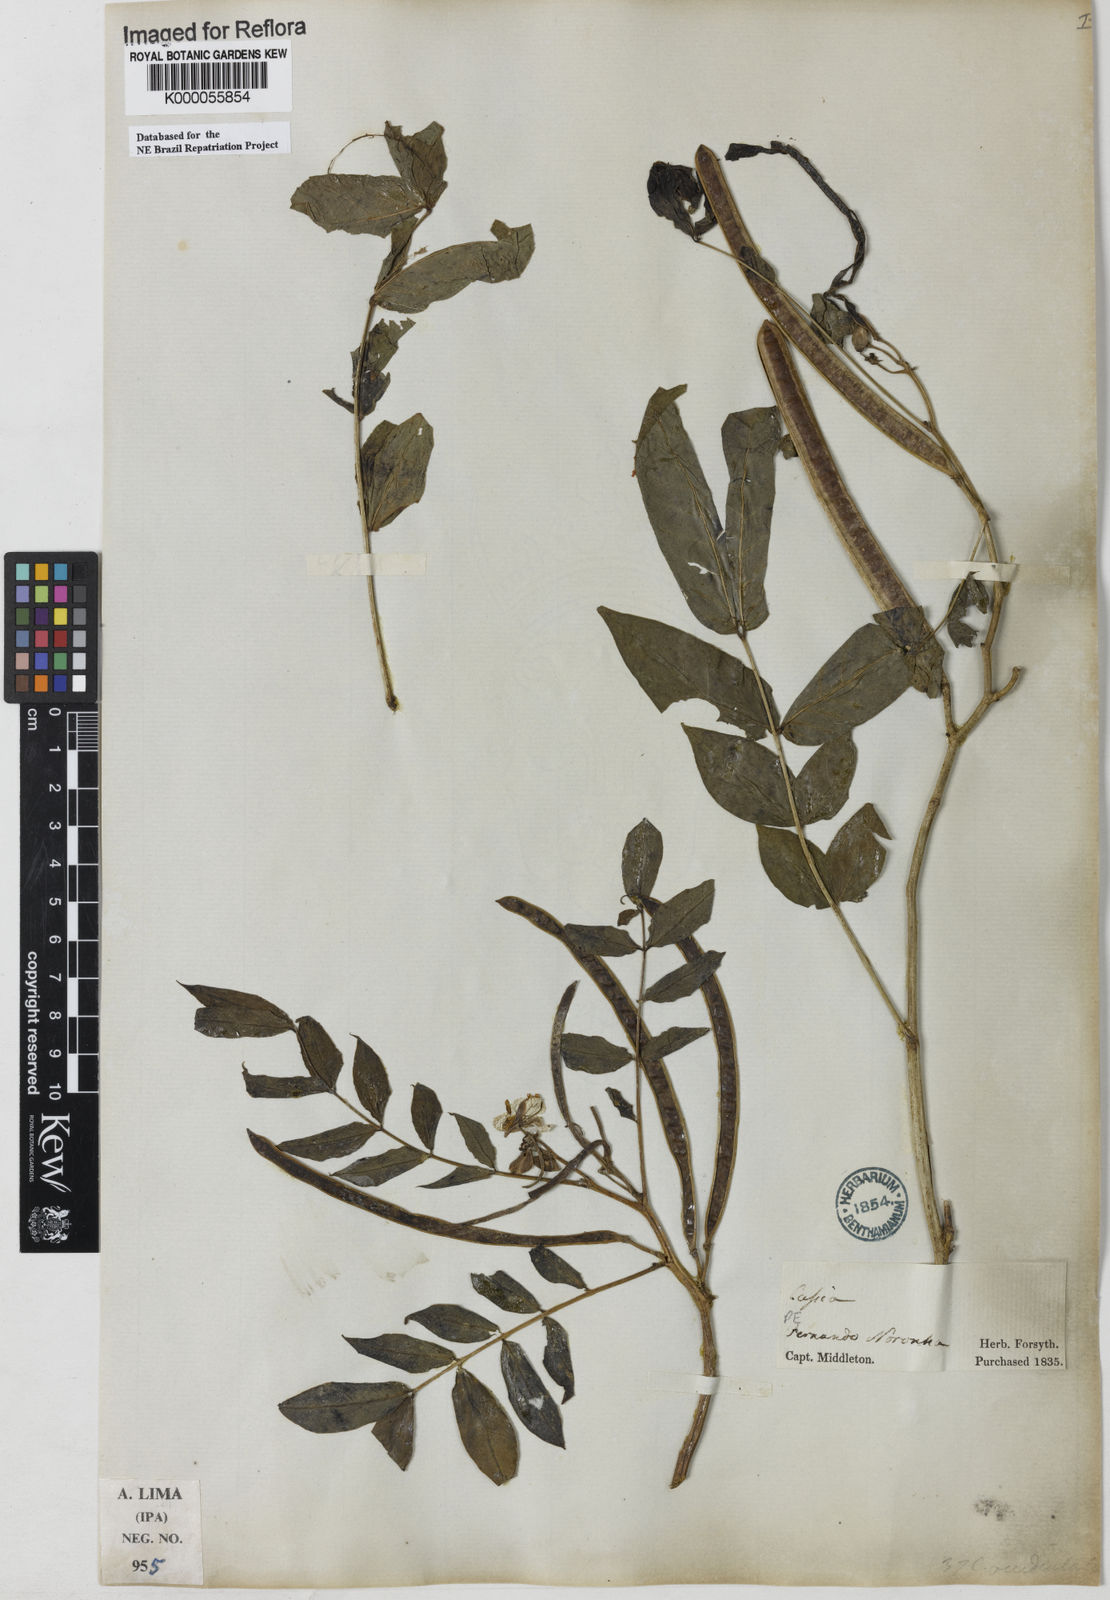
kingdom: Plantae
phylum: Tracheophyta
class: Magnoliopsida
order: Fabales
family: Fabaceae
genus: Senna
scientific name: Senna occidentalis
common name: Septicweed
